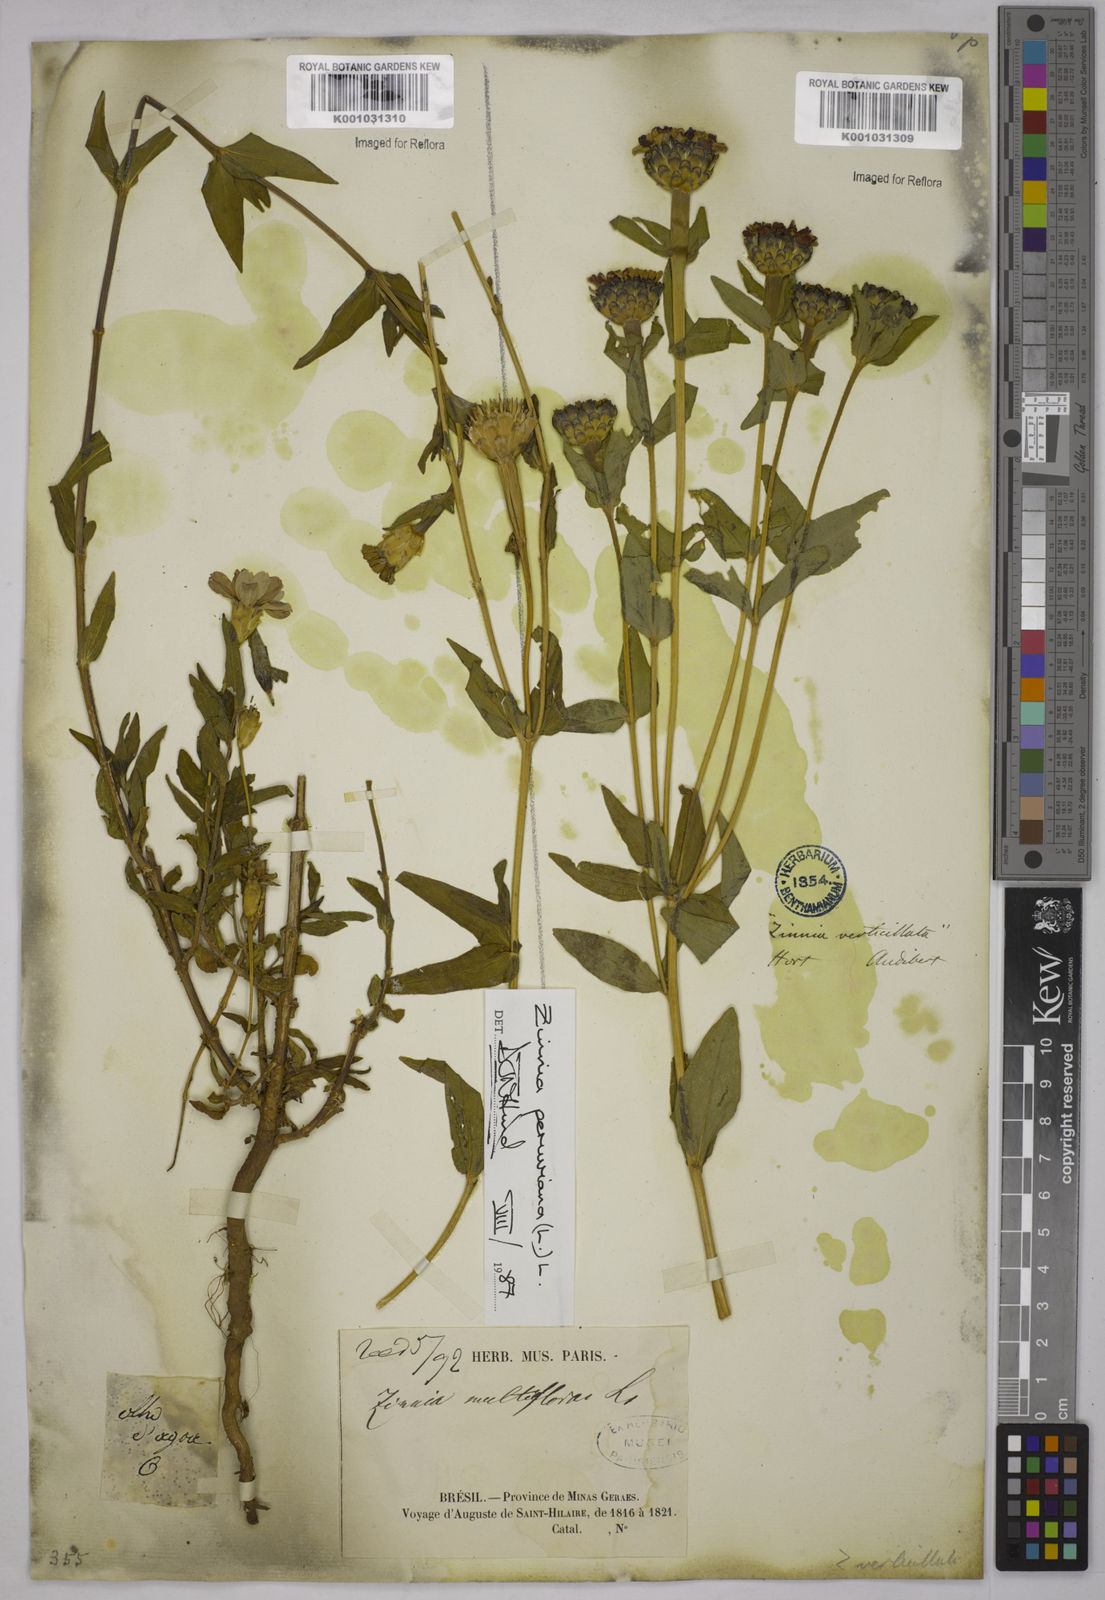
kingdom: Plantae
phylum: Tracheophyta
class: Magnoliopsida
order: Asterales
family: Asteraceae
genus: Zinnia
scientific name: Zinnia peruviana
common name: Peruvian zinnia
